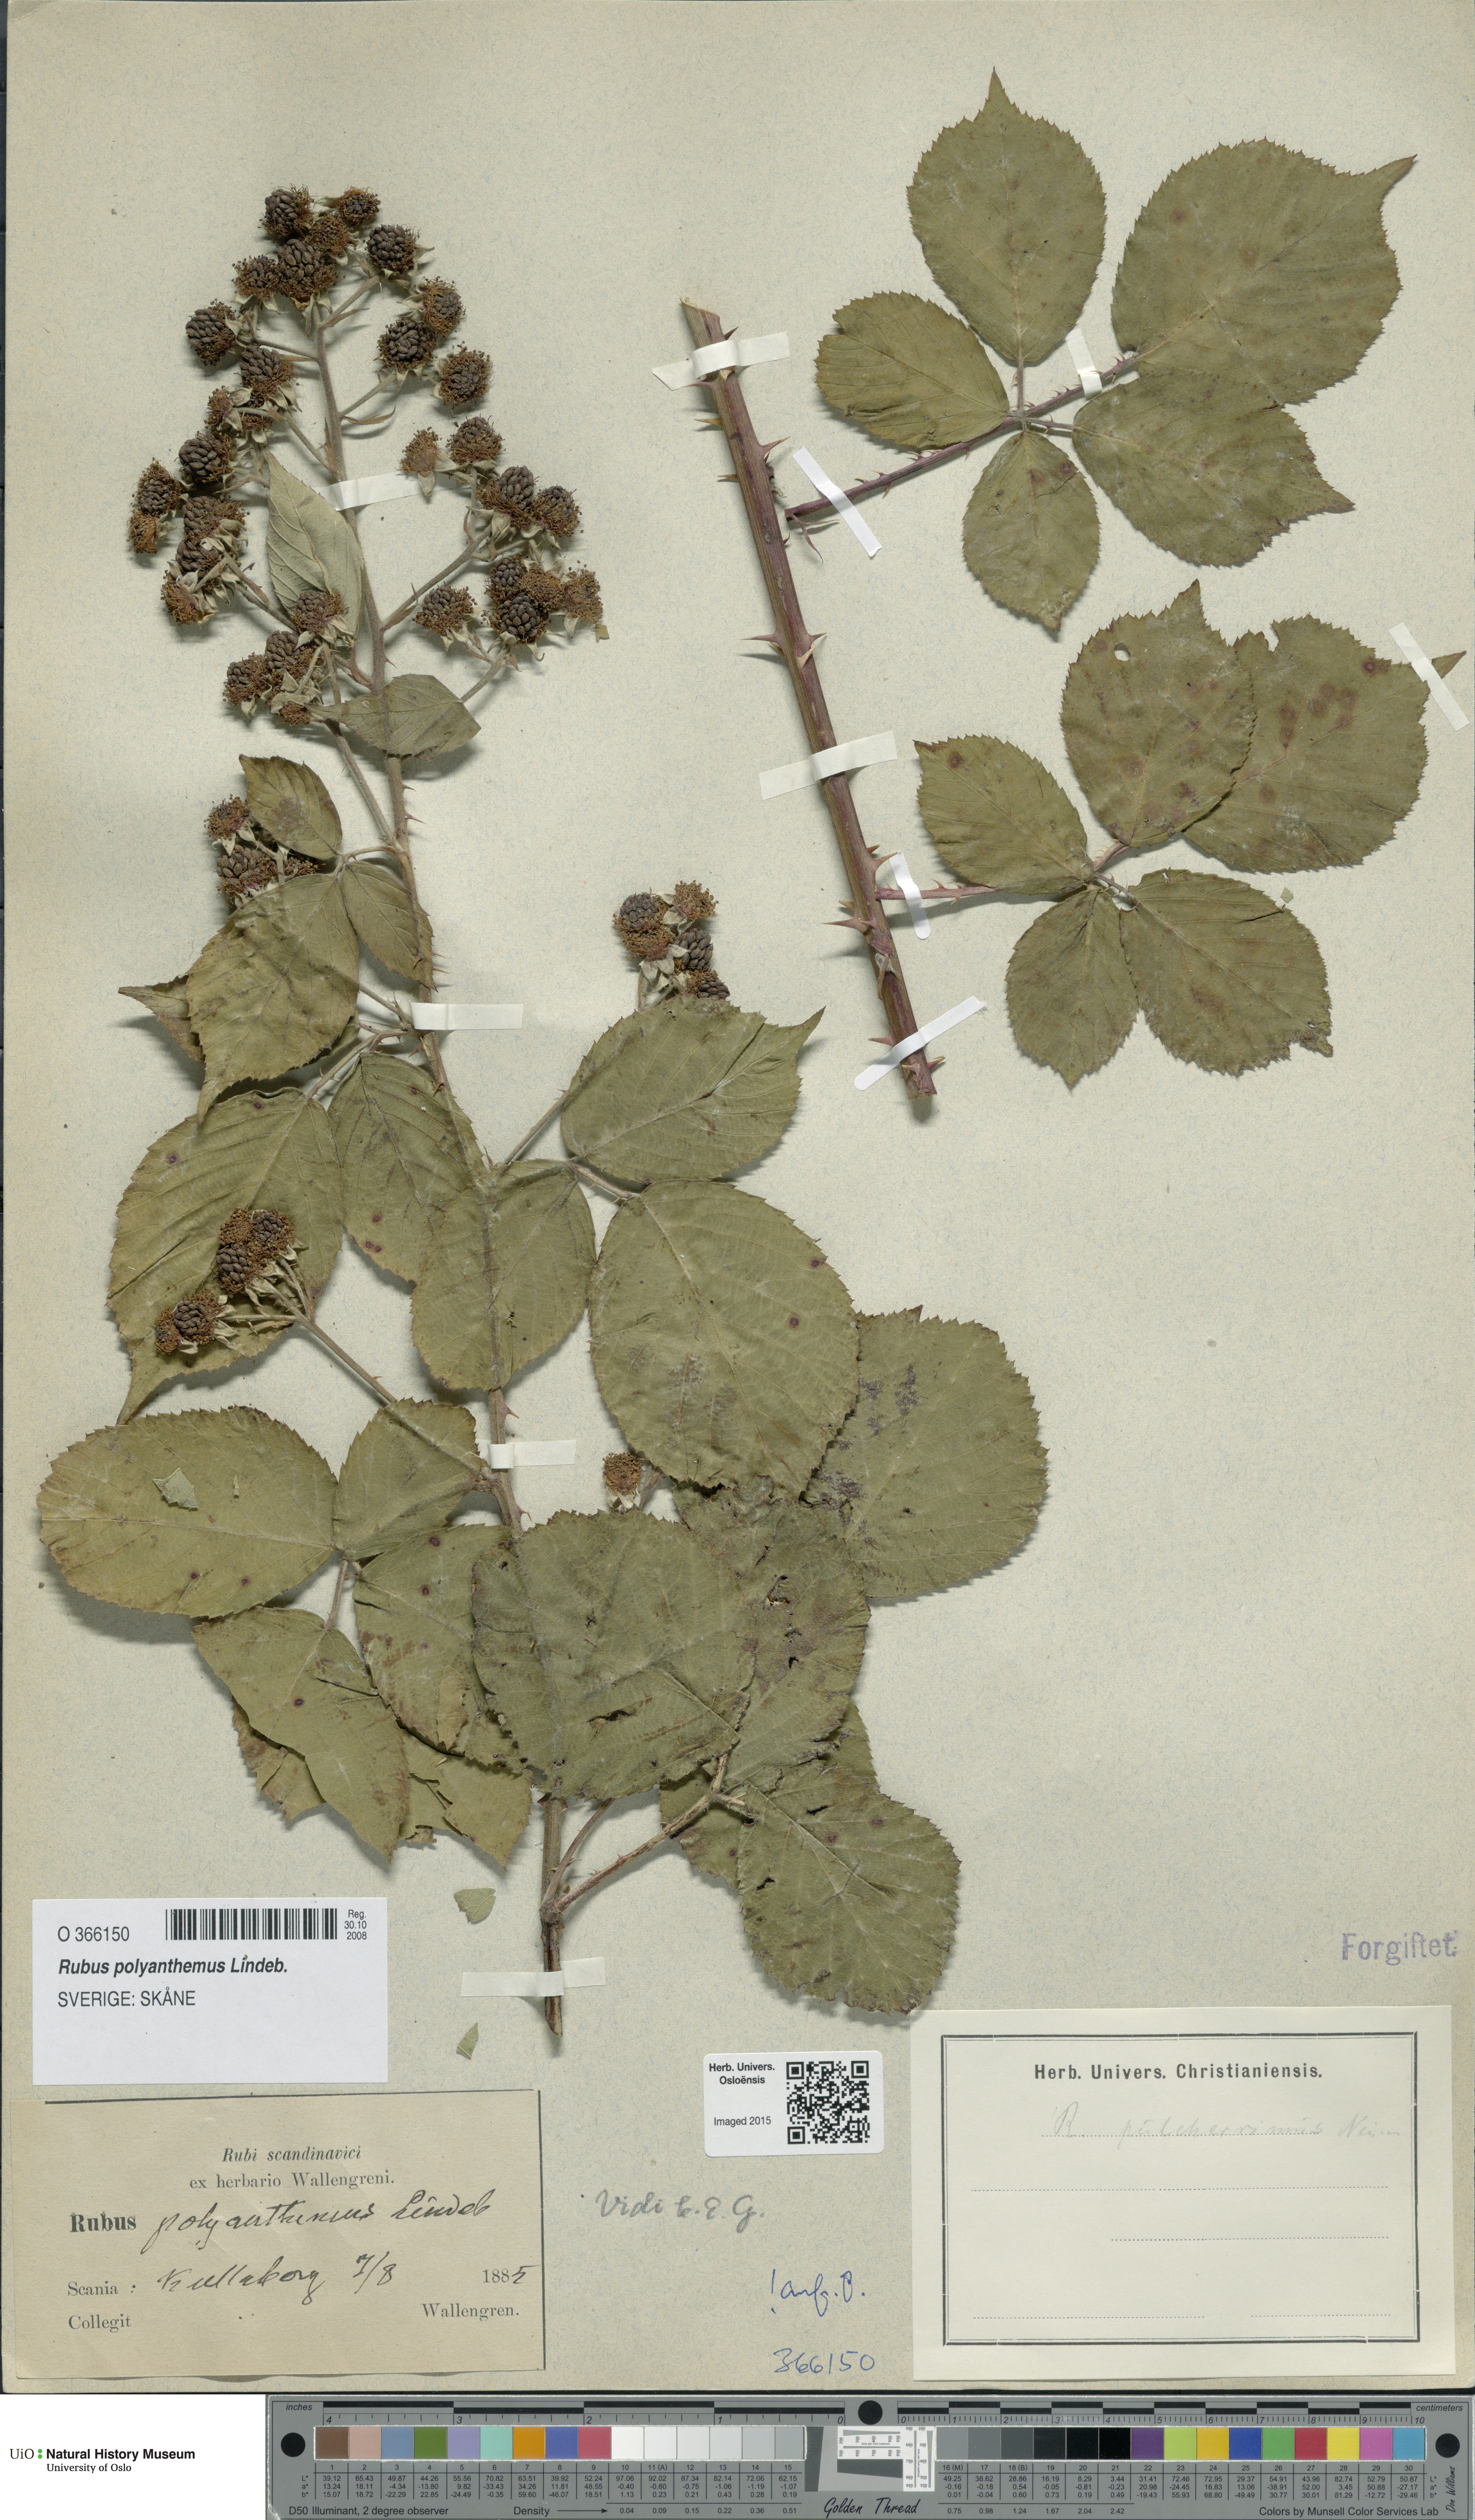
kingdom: Plantae
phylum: Tracheophyta
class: Magnoliopsida
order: Rosales
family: Rosaceae
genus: Rubus
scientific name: Rubus polyanthemus
